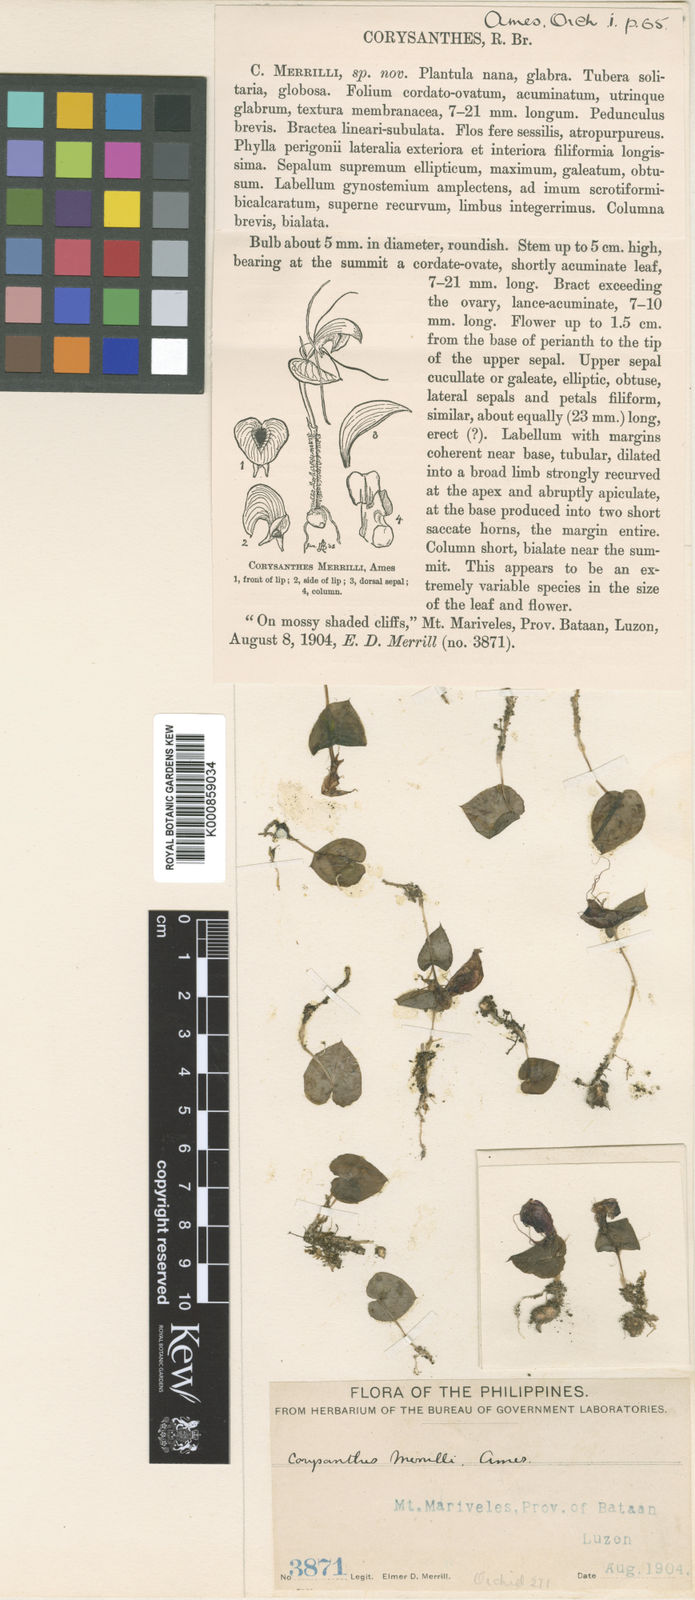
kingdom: Plantae
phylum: Tracheophyta
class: Liliopsida
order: Asparagales
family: Orchidaceae
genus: Corybas
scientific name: Corybas merrillii
